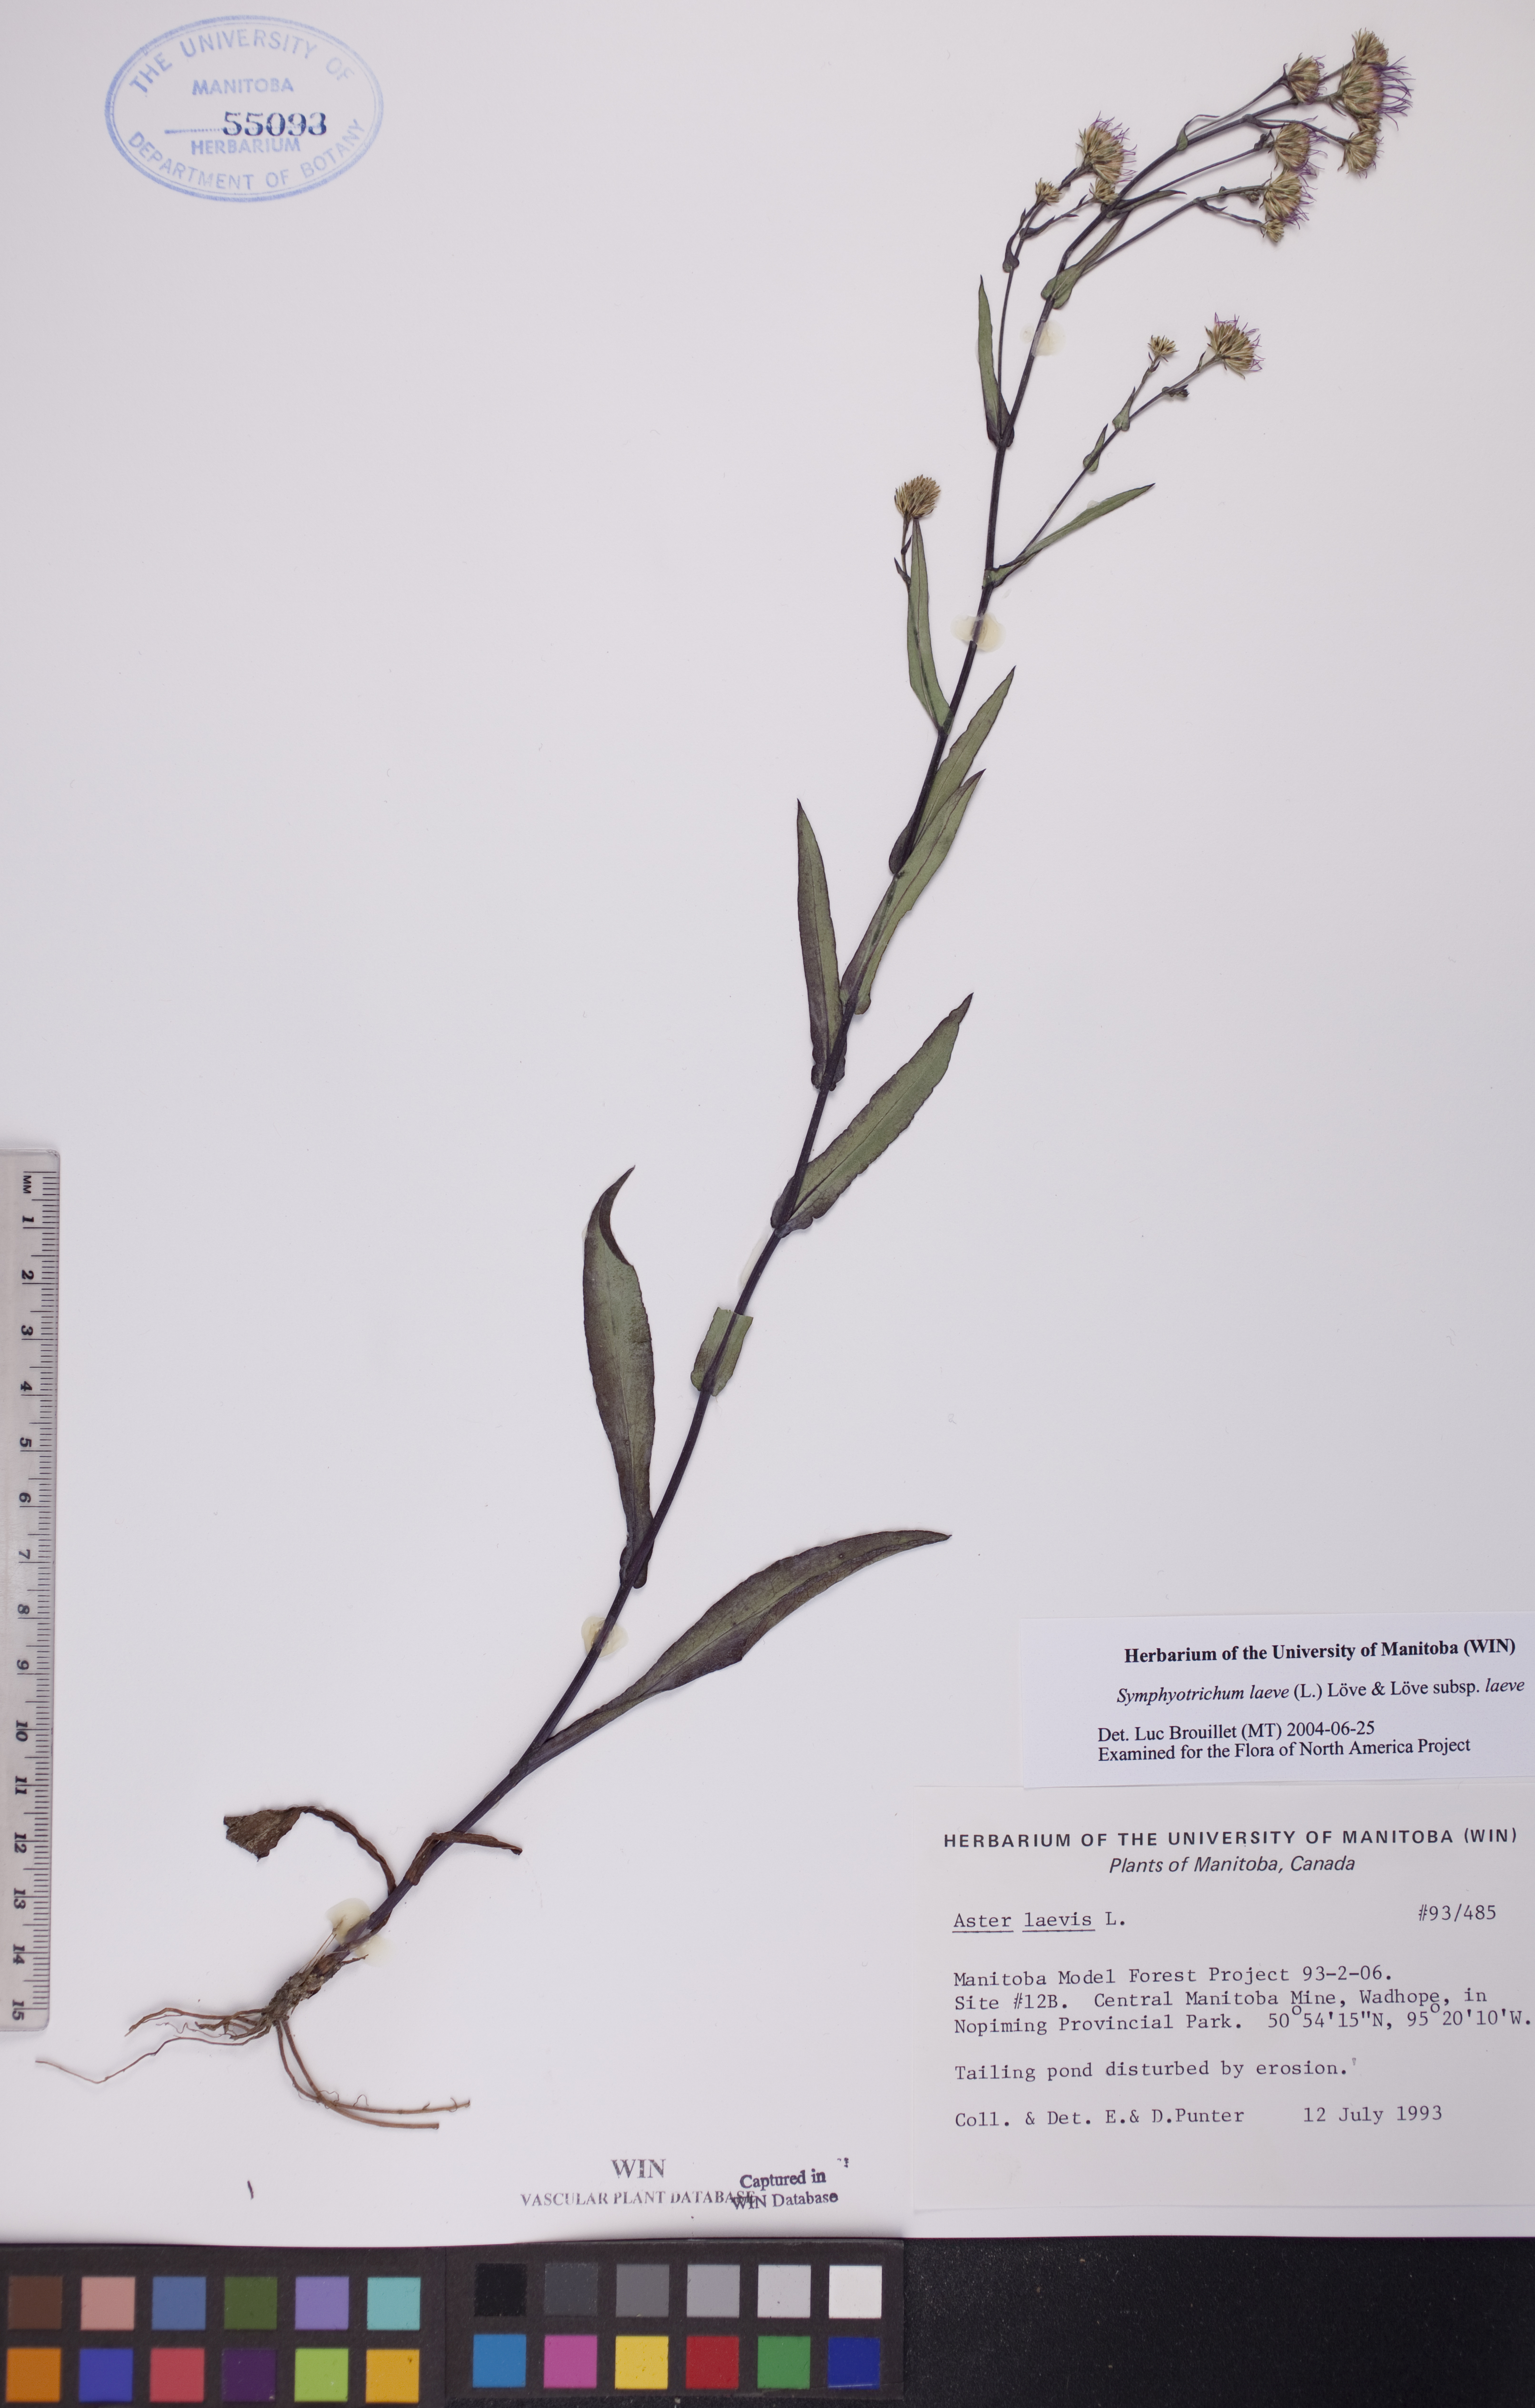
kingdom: Plantae
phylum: Tracheophyta
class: Magnoliopsida
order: Asterales
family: Asteraceae
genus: Symphyotrichum
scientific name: Symphyotrichum laeve
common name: Glaucous aster
